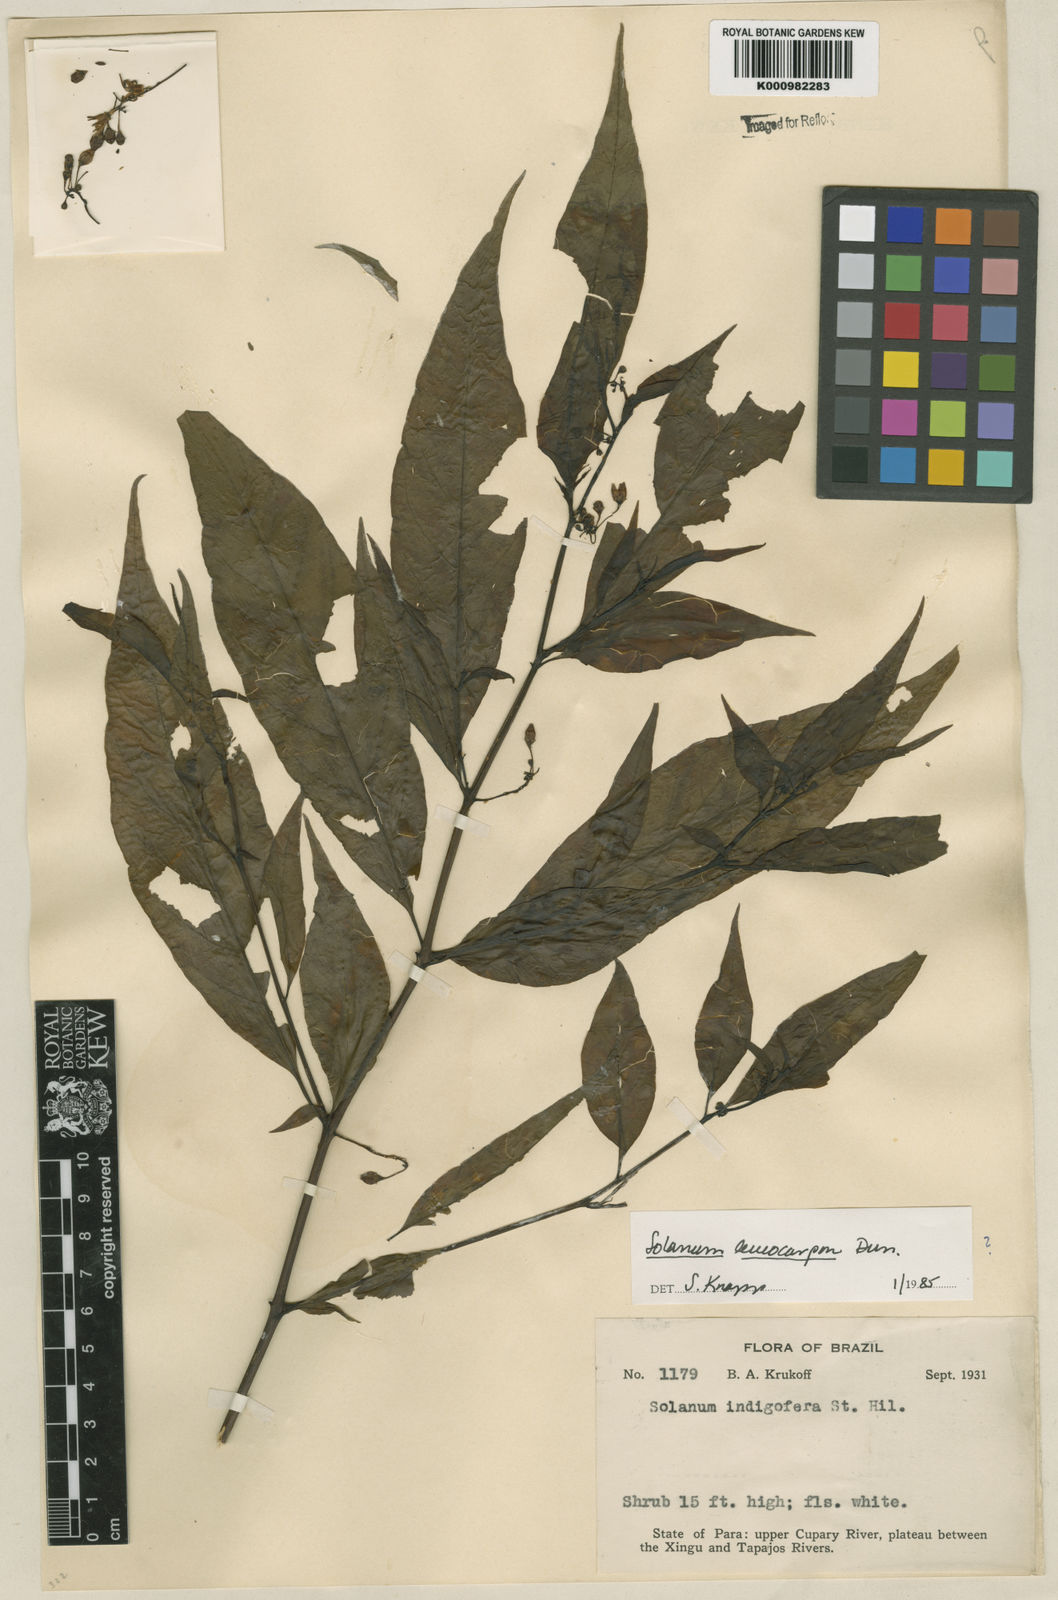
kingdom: Plantae
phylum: Tracheophyta
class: Magnoliopsida
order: Solanales
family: Solanaceae
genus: Solanum
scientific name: Solanum leucocarpon
